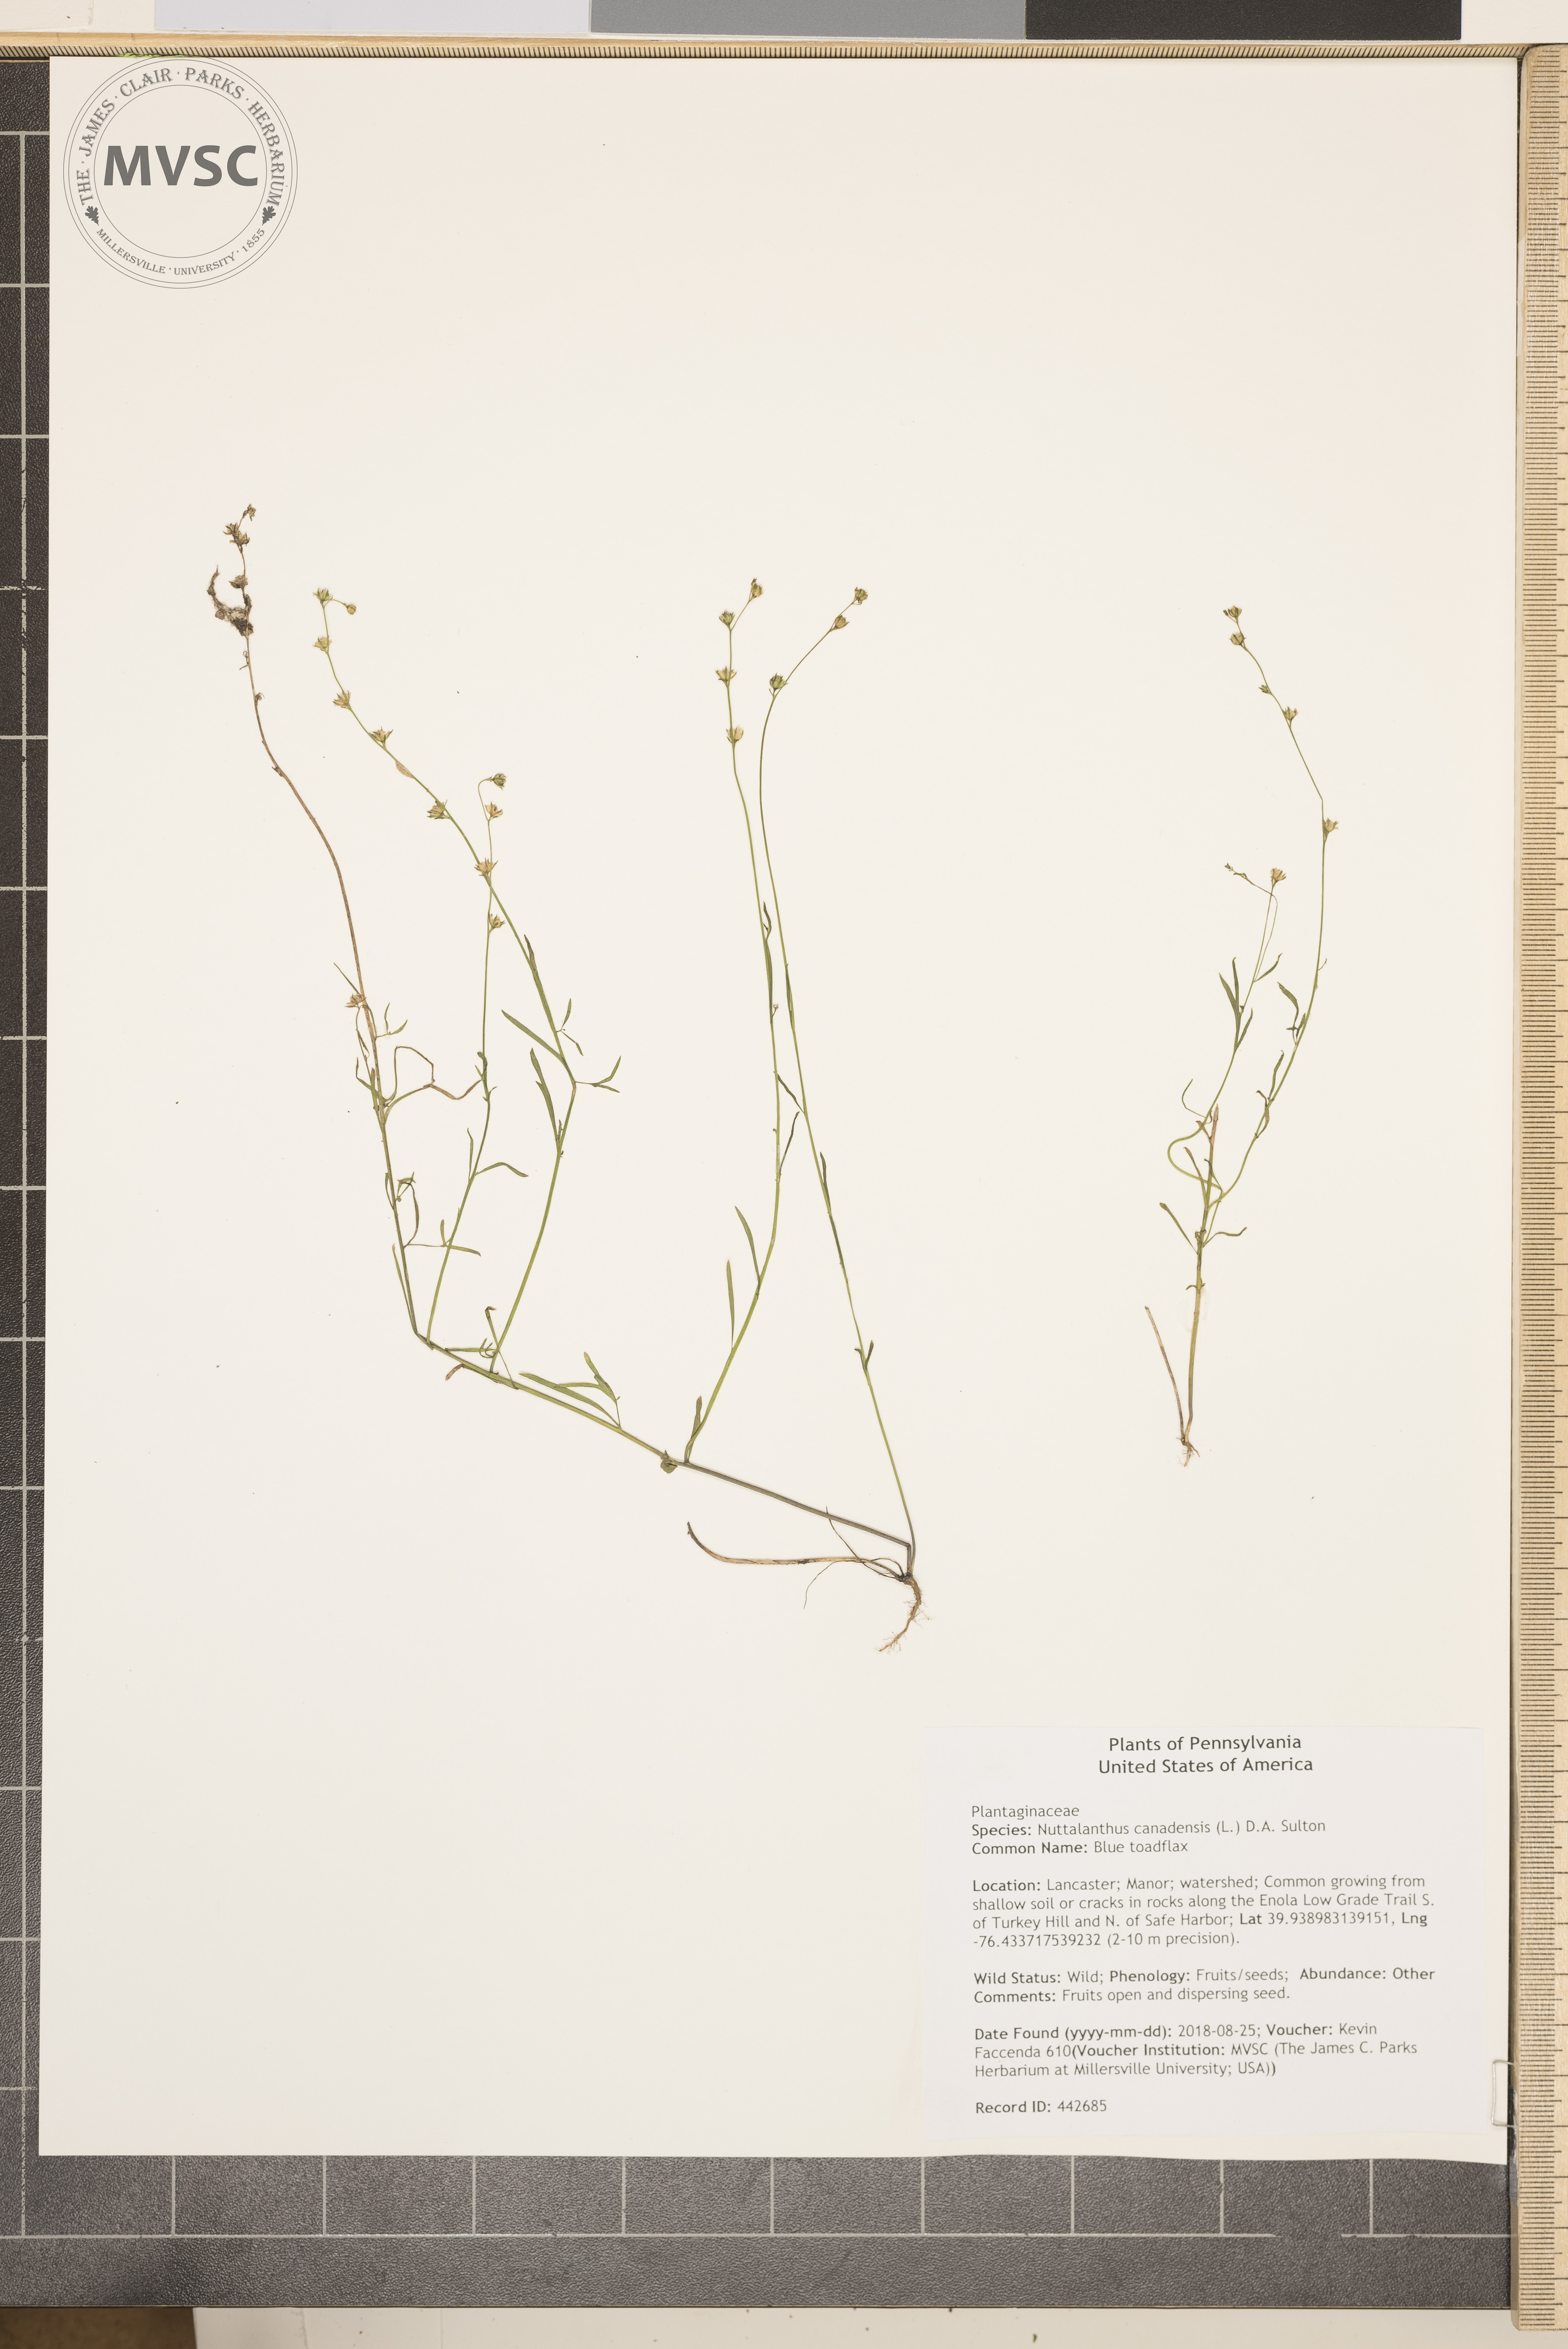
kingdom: Plantae
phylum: Tracheophyta
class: Magnoliopsida
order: Lamiales
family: Plantaginaceae
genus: Nuttallanthus
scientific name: Nuttallanthus canadensis
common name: Blue toadflax
